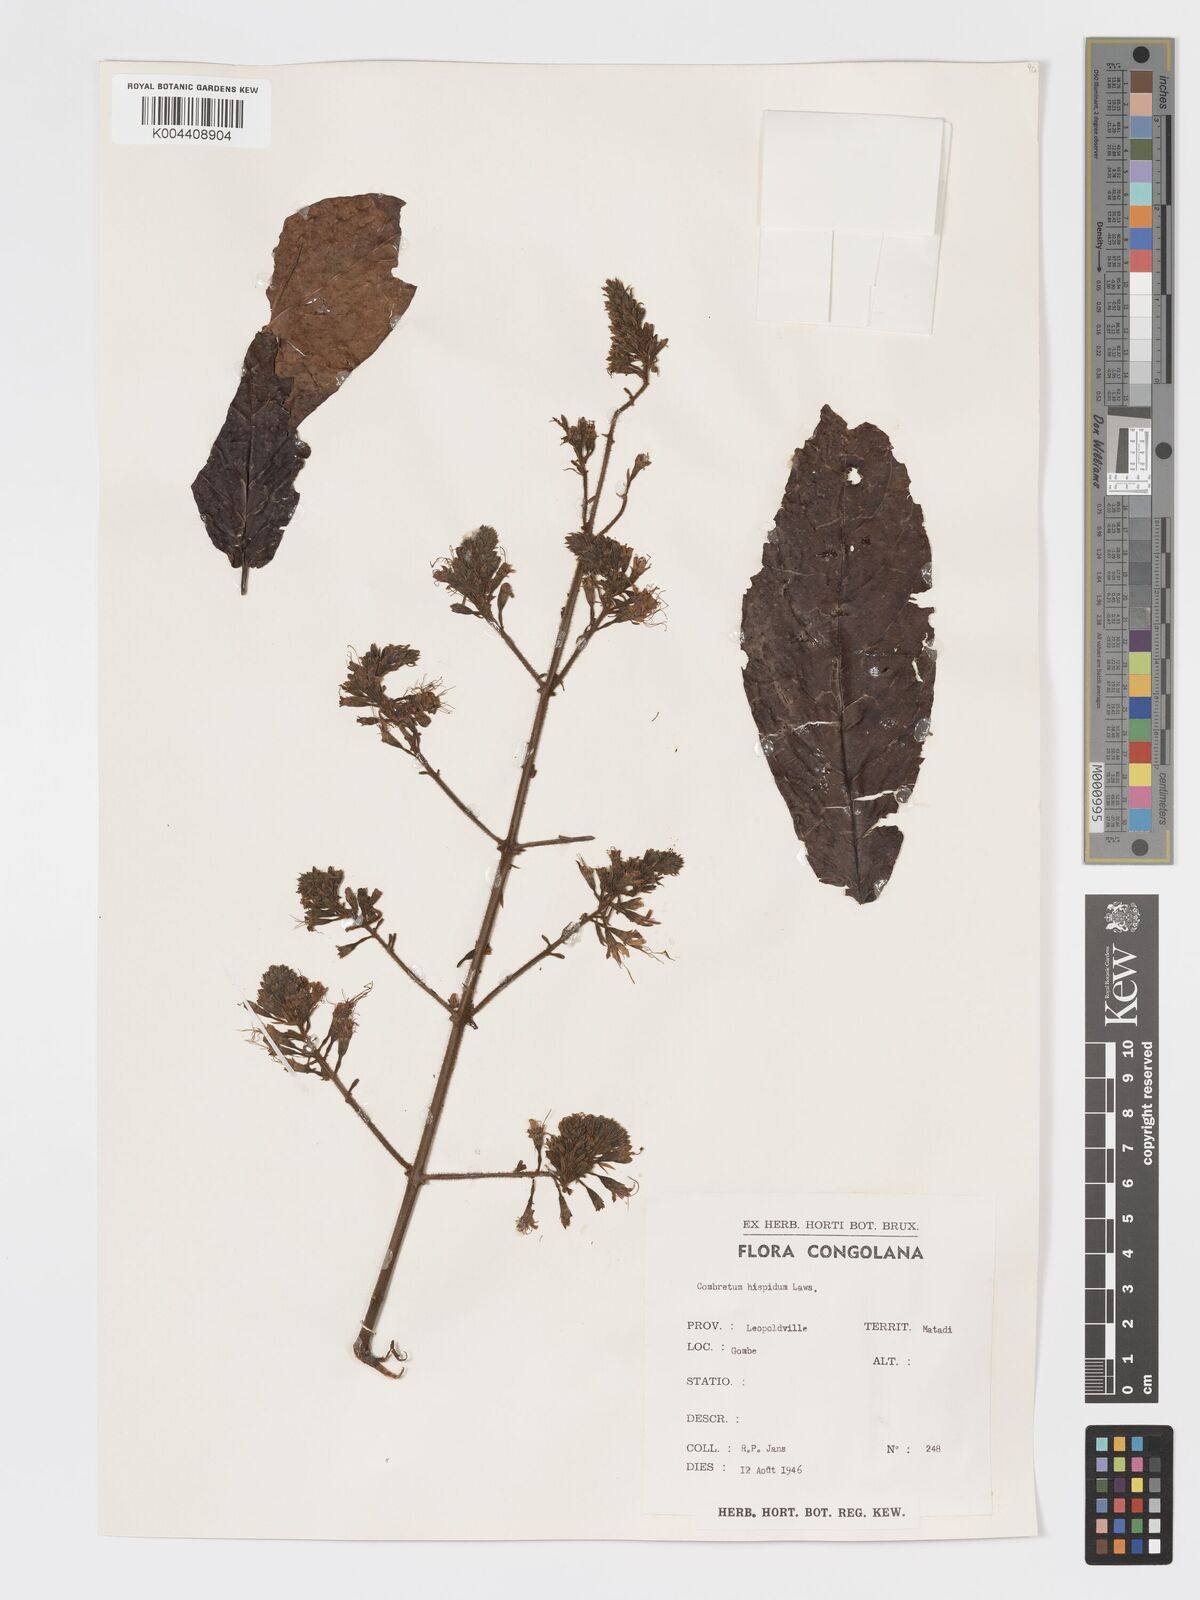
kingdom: Plantae
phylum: Tracheophyta
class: Magnoliopsida
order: Myrtales
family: Combretaceae
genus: Combretum
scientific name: Combretum comosum
